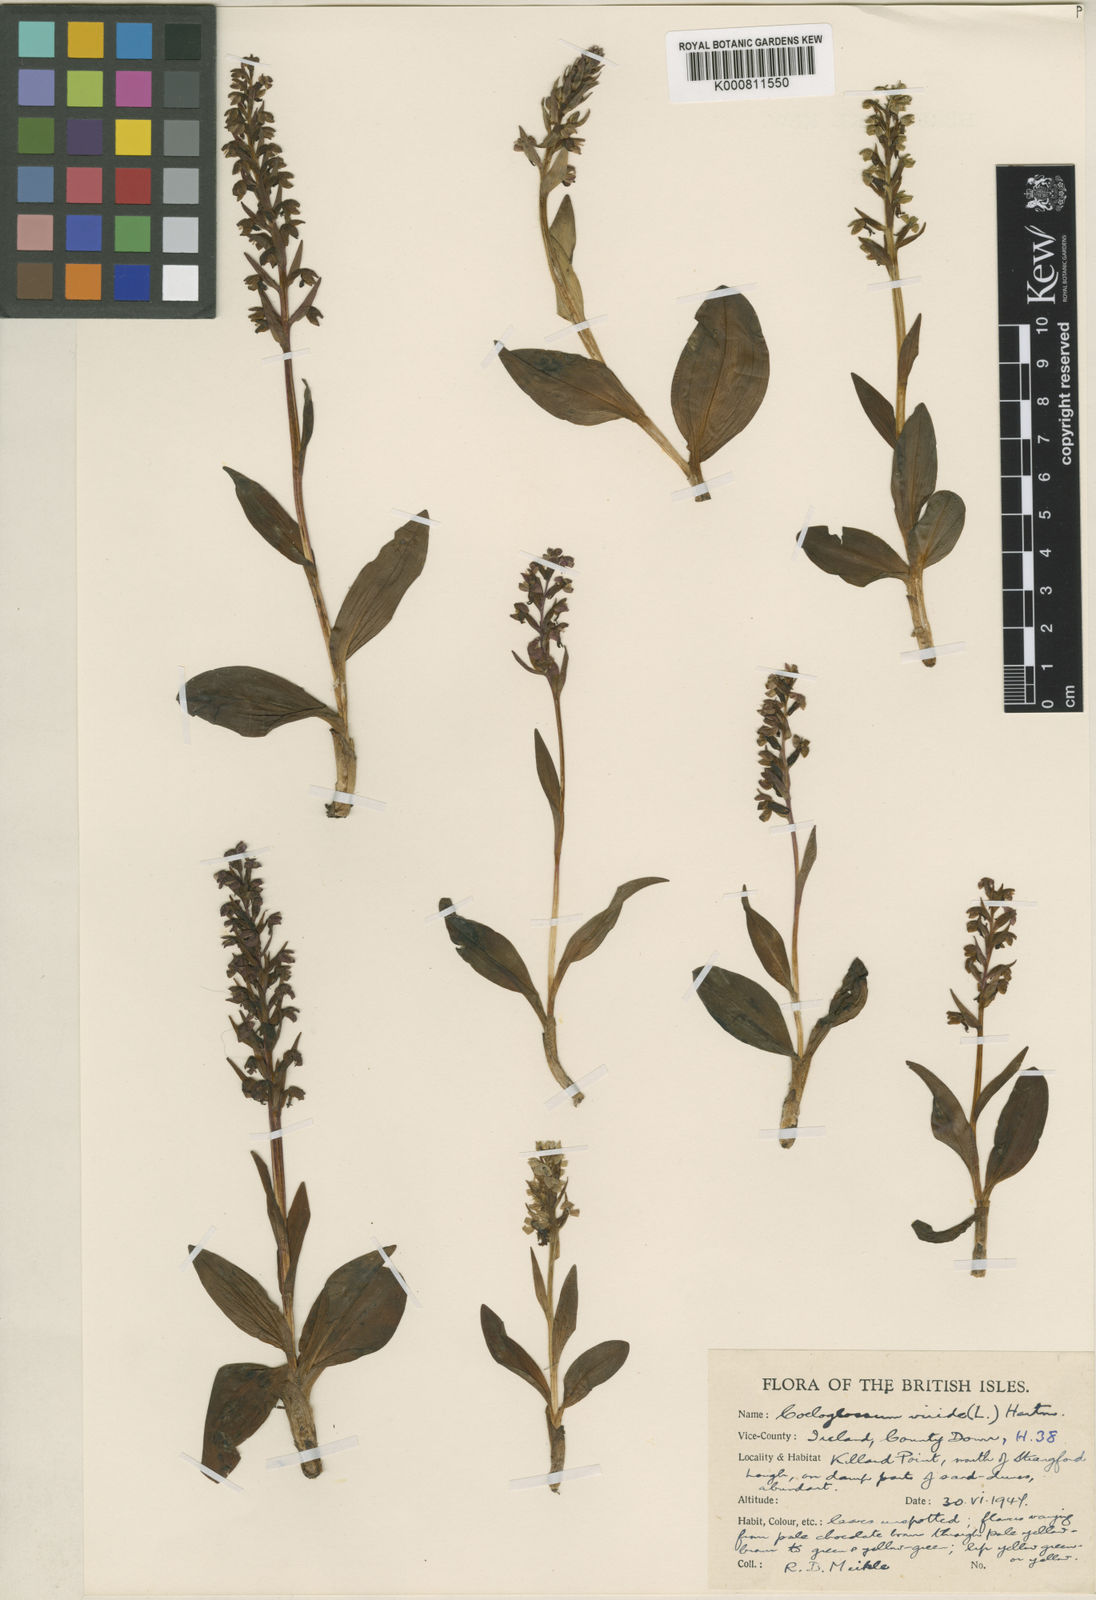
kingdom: Plantae
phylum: Tracheophyta
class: Liliopsida
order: Asparagales
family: Orchidaceae
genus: Dactylorhiza
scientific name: Dactylorhiza viridis
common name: Longbract frog orchid
